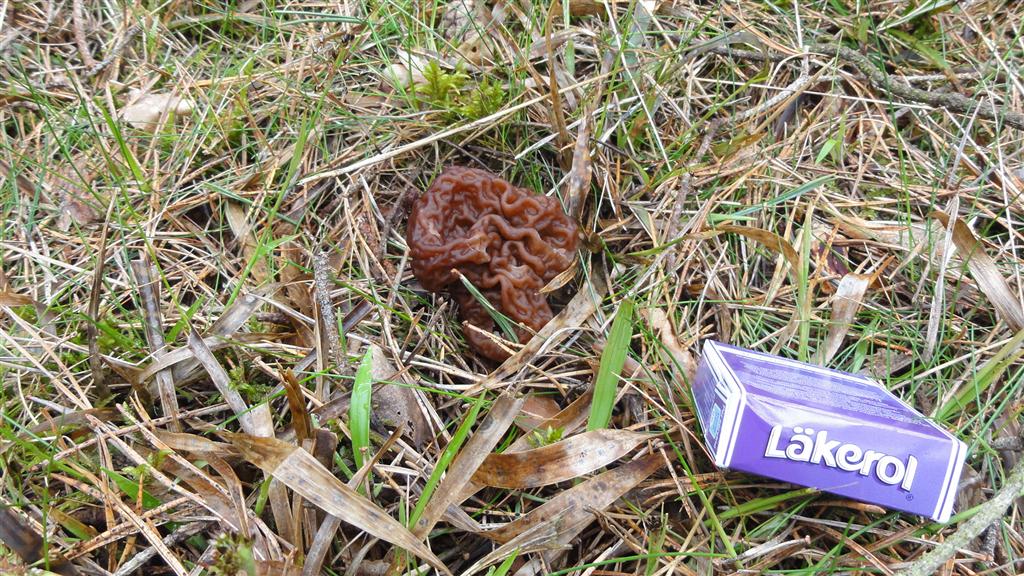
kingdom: Fungi
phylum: Ascomycota
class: Pezizomycetes
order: Pezizales
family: Discinaceae
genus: Gyromitra
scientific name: Gyromitra esculenta
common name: ægte stenmorkel
